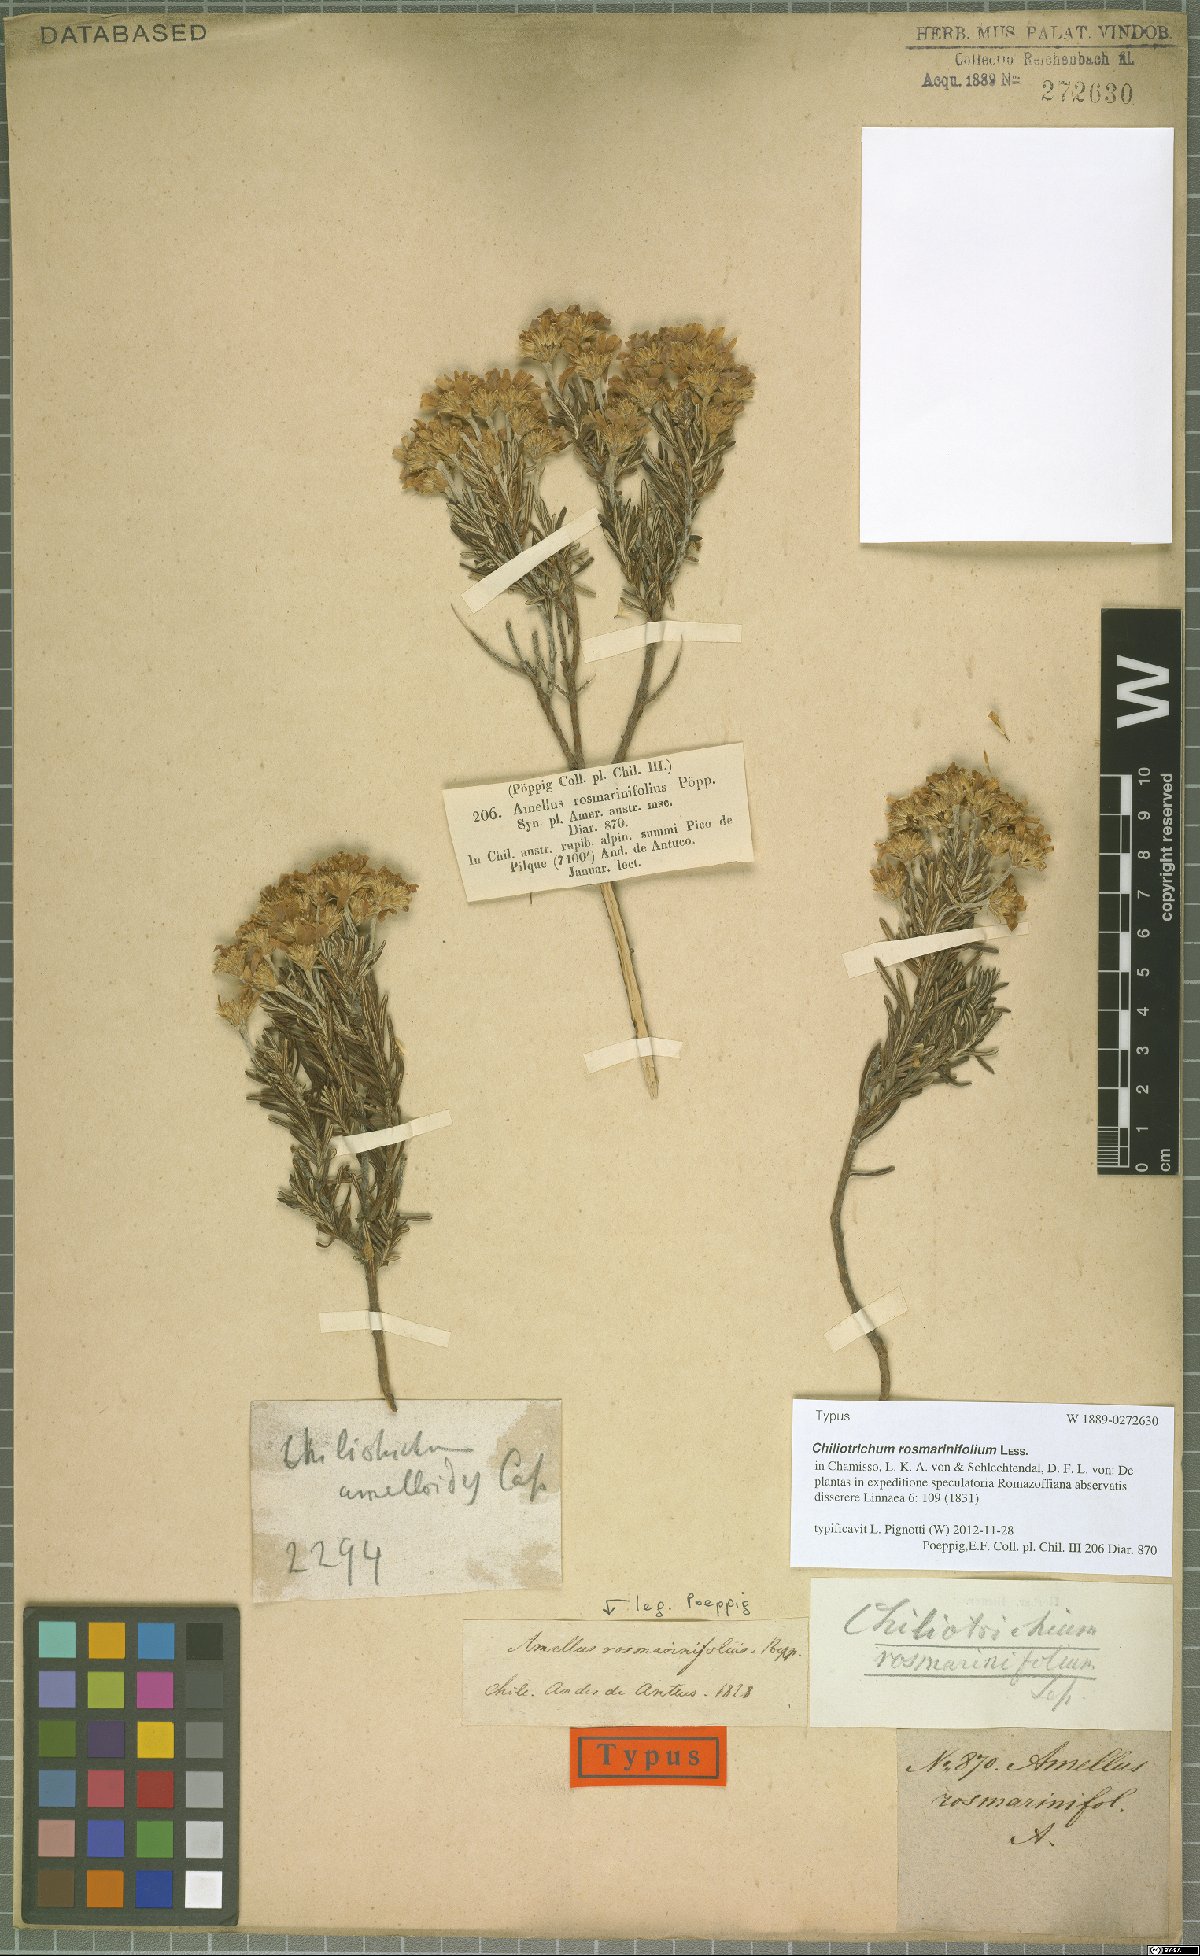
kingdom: Plantae
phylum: Tracheophyta
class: Magnoliopsida
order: Asterales
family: Asteraceae
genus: Chiliotrichum
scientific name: Chiliotrichum diffusum
